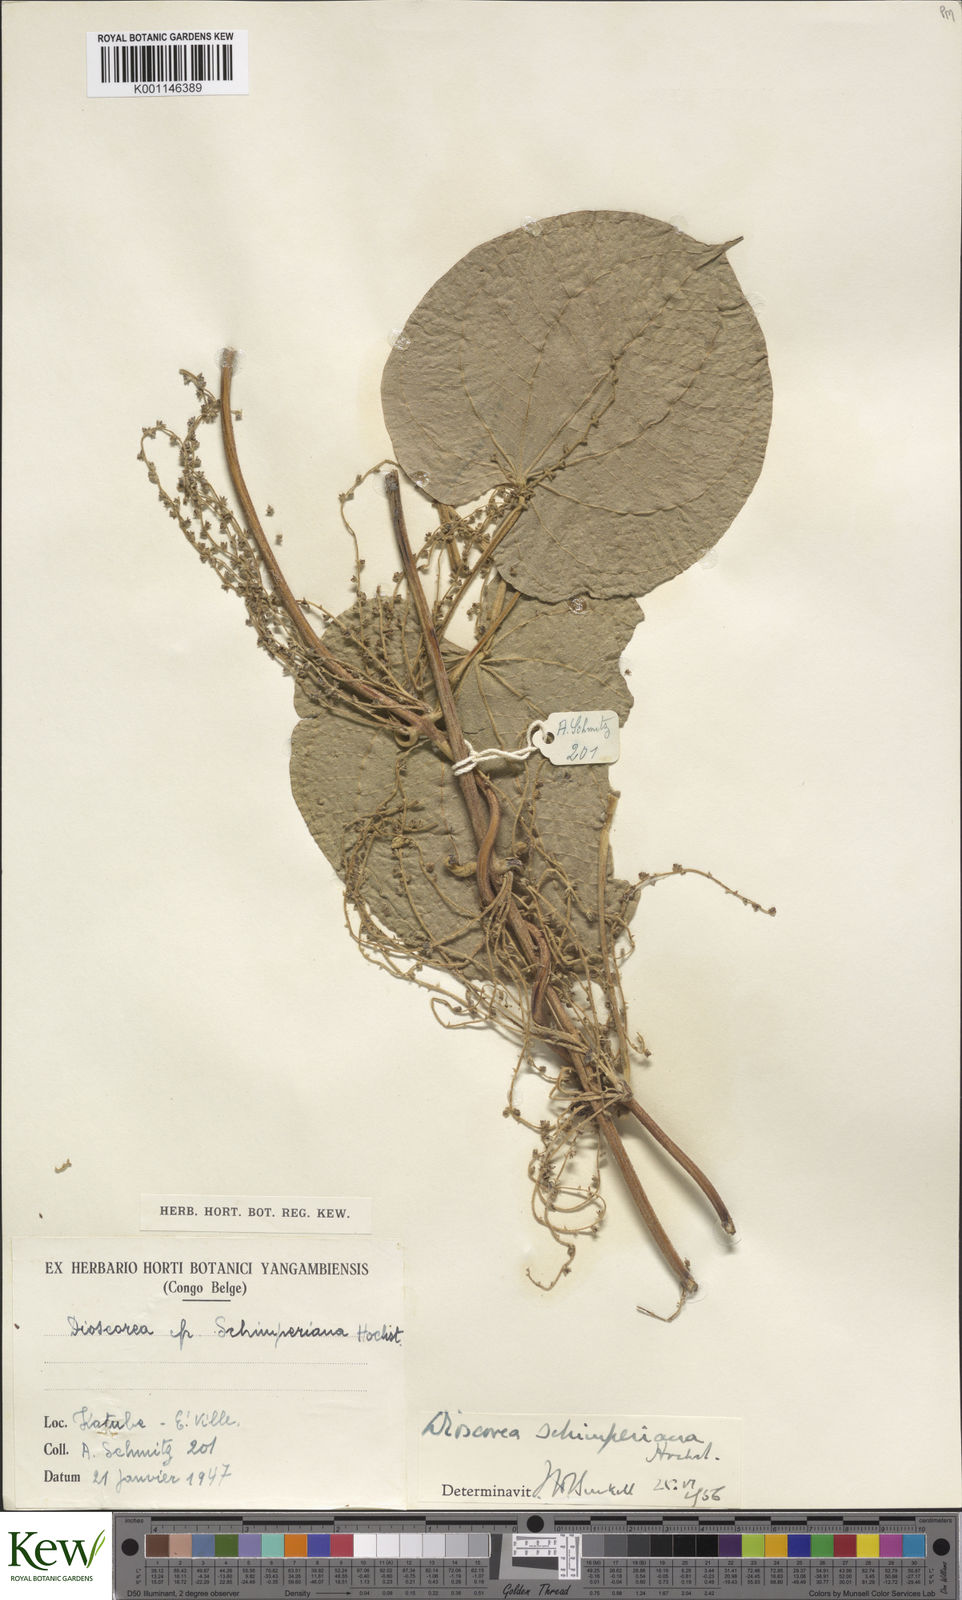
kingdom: Plantae
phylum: Tracheophyta
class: Liliopsida
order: Dioscoreales
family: Dioscoreaceae
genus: Dioscorea
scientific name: Dioscorea schimperiana
